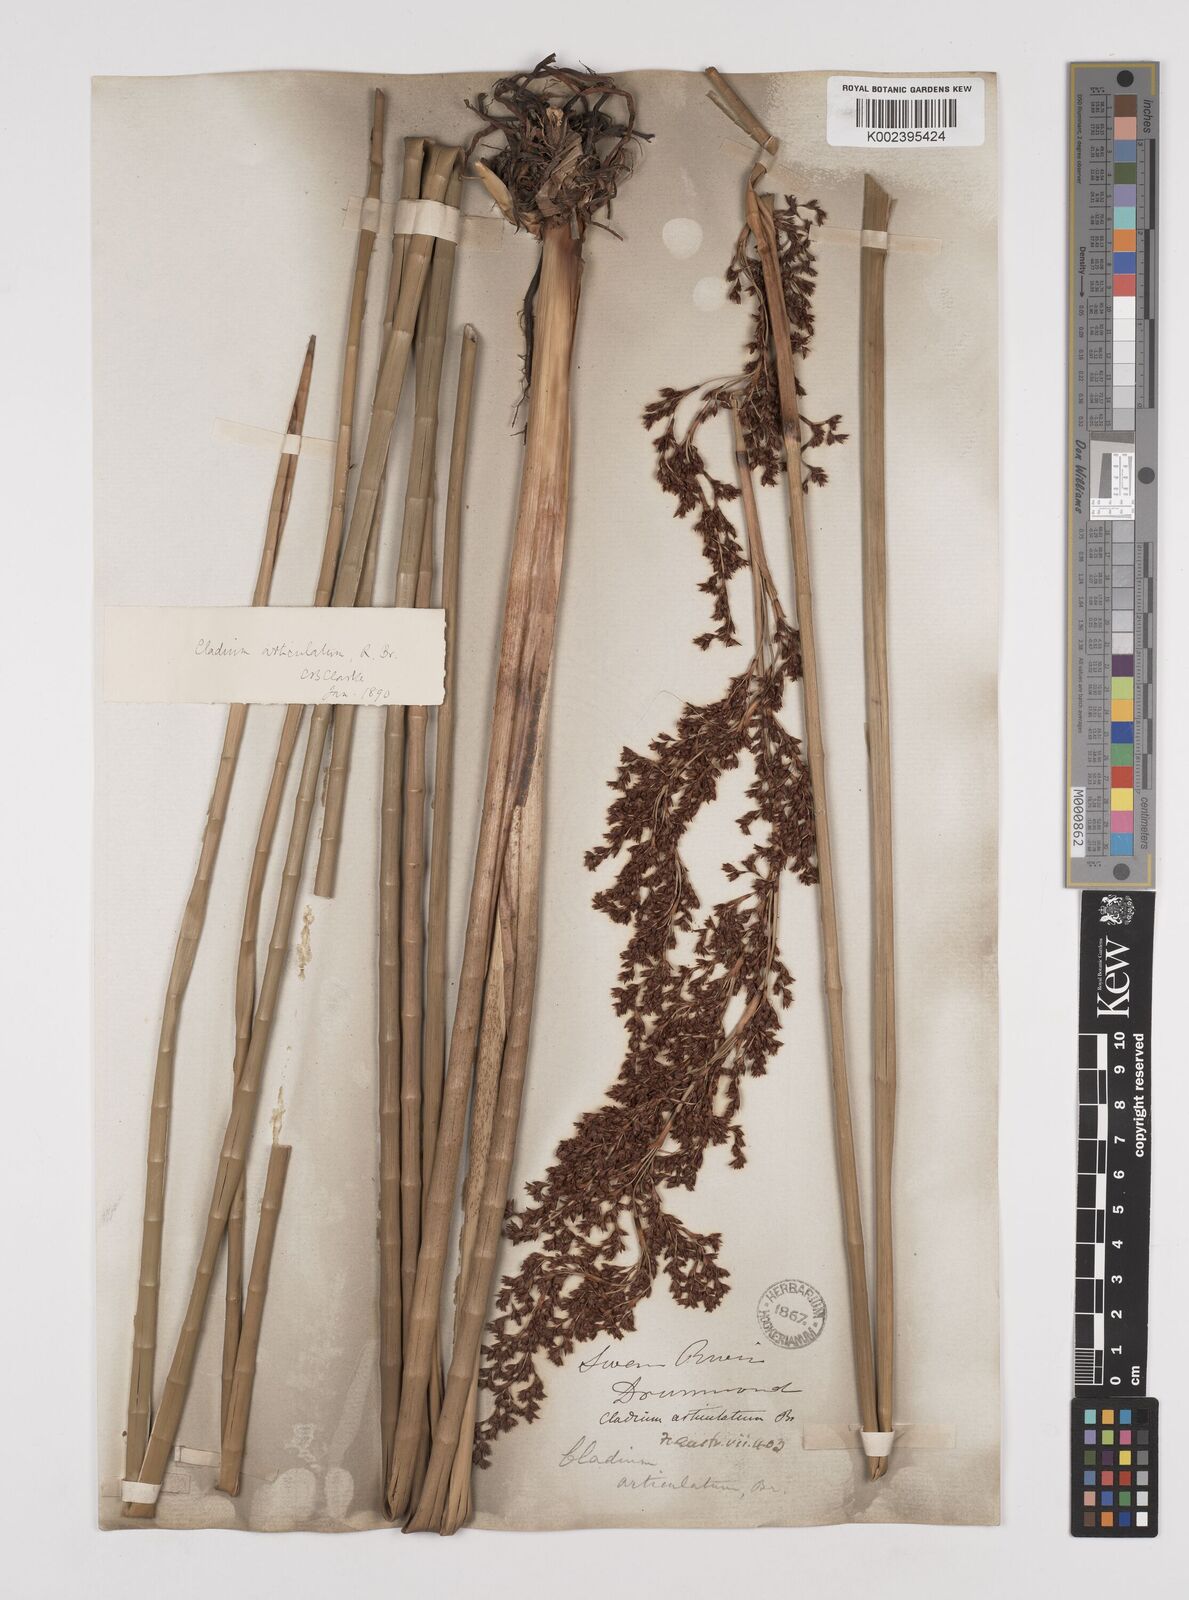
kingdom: Plantae
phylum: Tracheophyta
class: Liliopsida
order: Poales
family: Cyperaceae
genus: Machaerina
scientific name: Machaerina articulata
